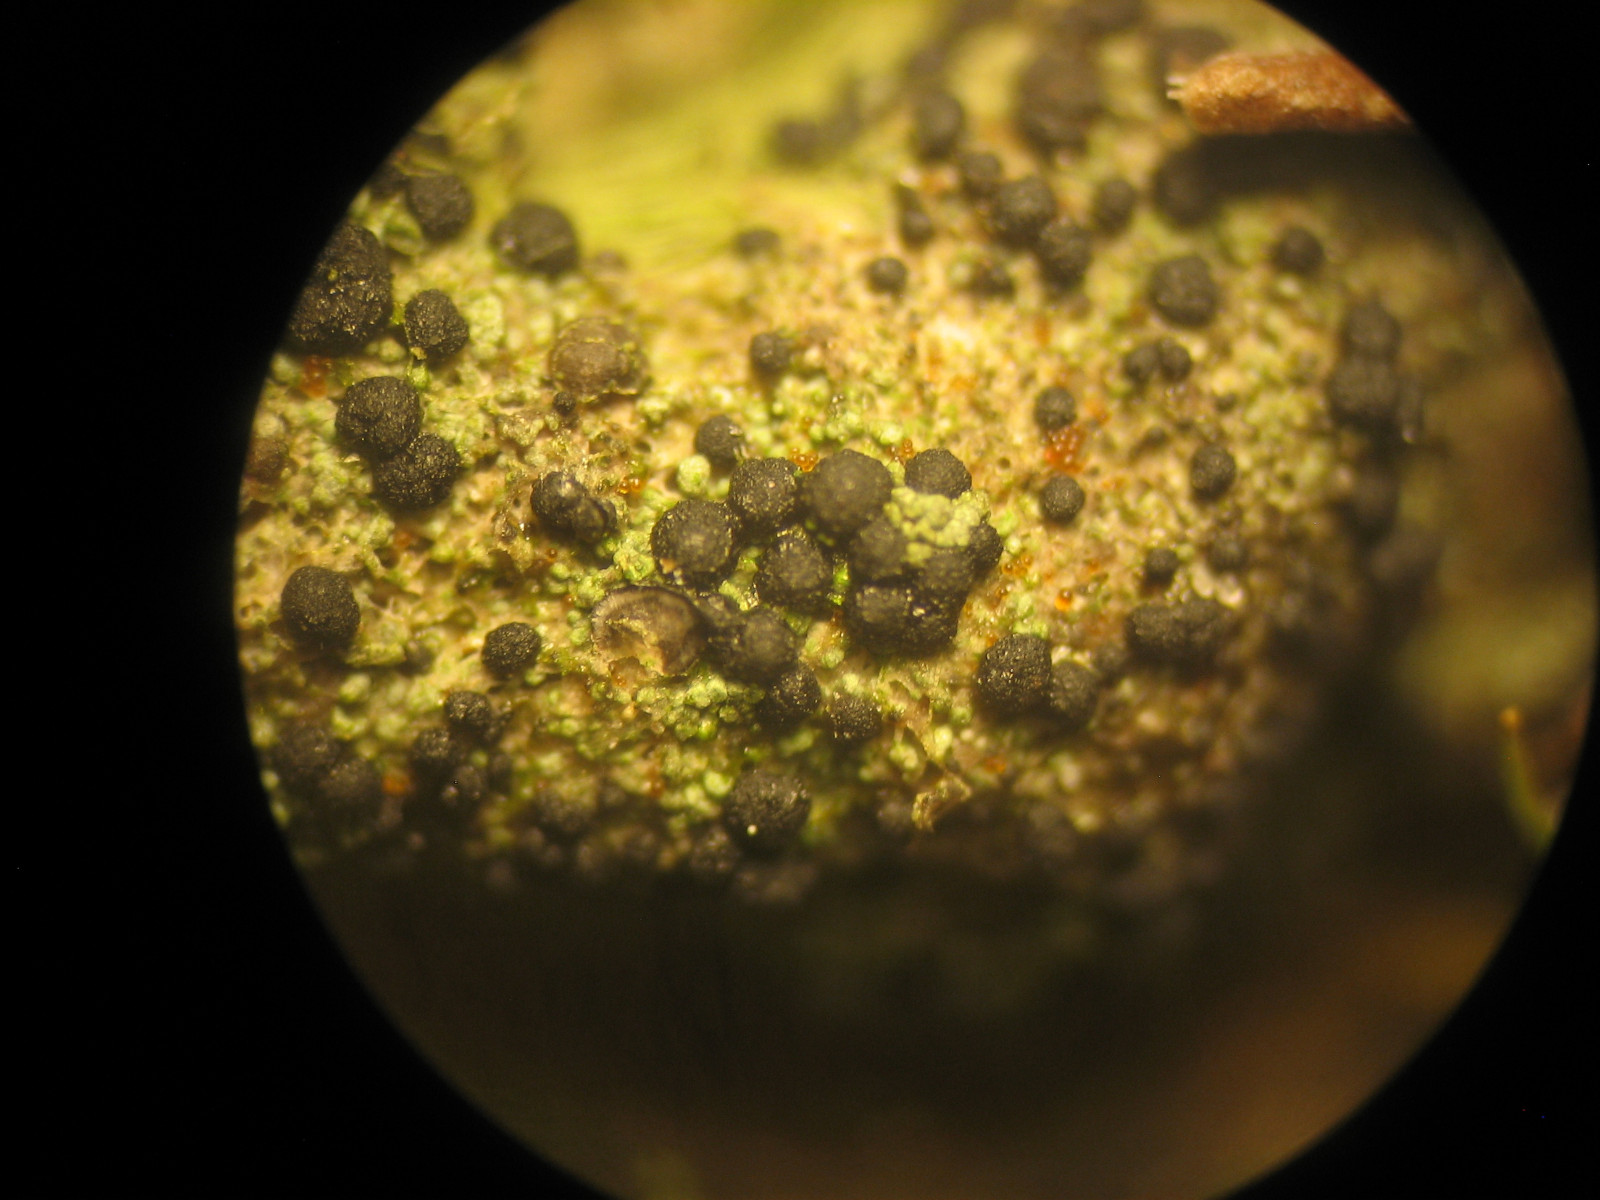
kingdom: Fungi
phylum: Ascomycota
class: Lecanoromycetes
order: Lecanorales
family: Byssolomataceae
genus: Micarea
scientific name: Micarea lignaria
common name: tørve-knaplav
